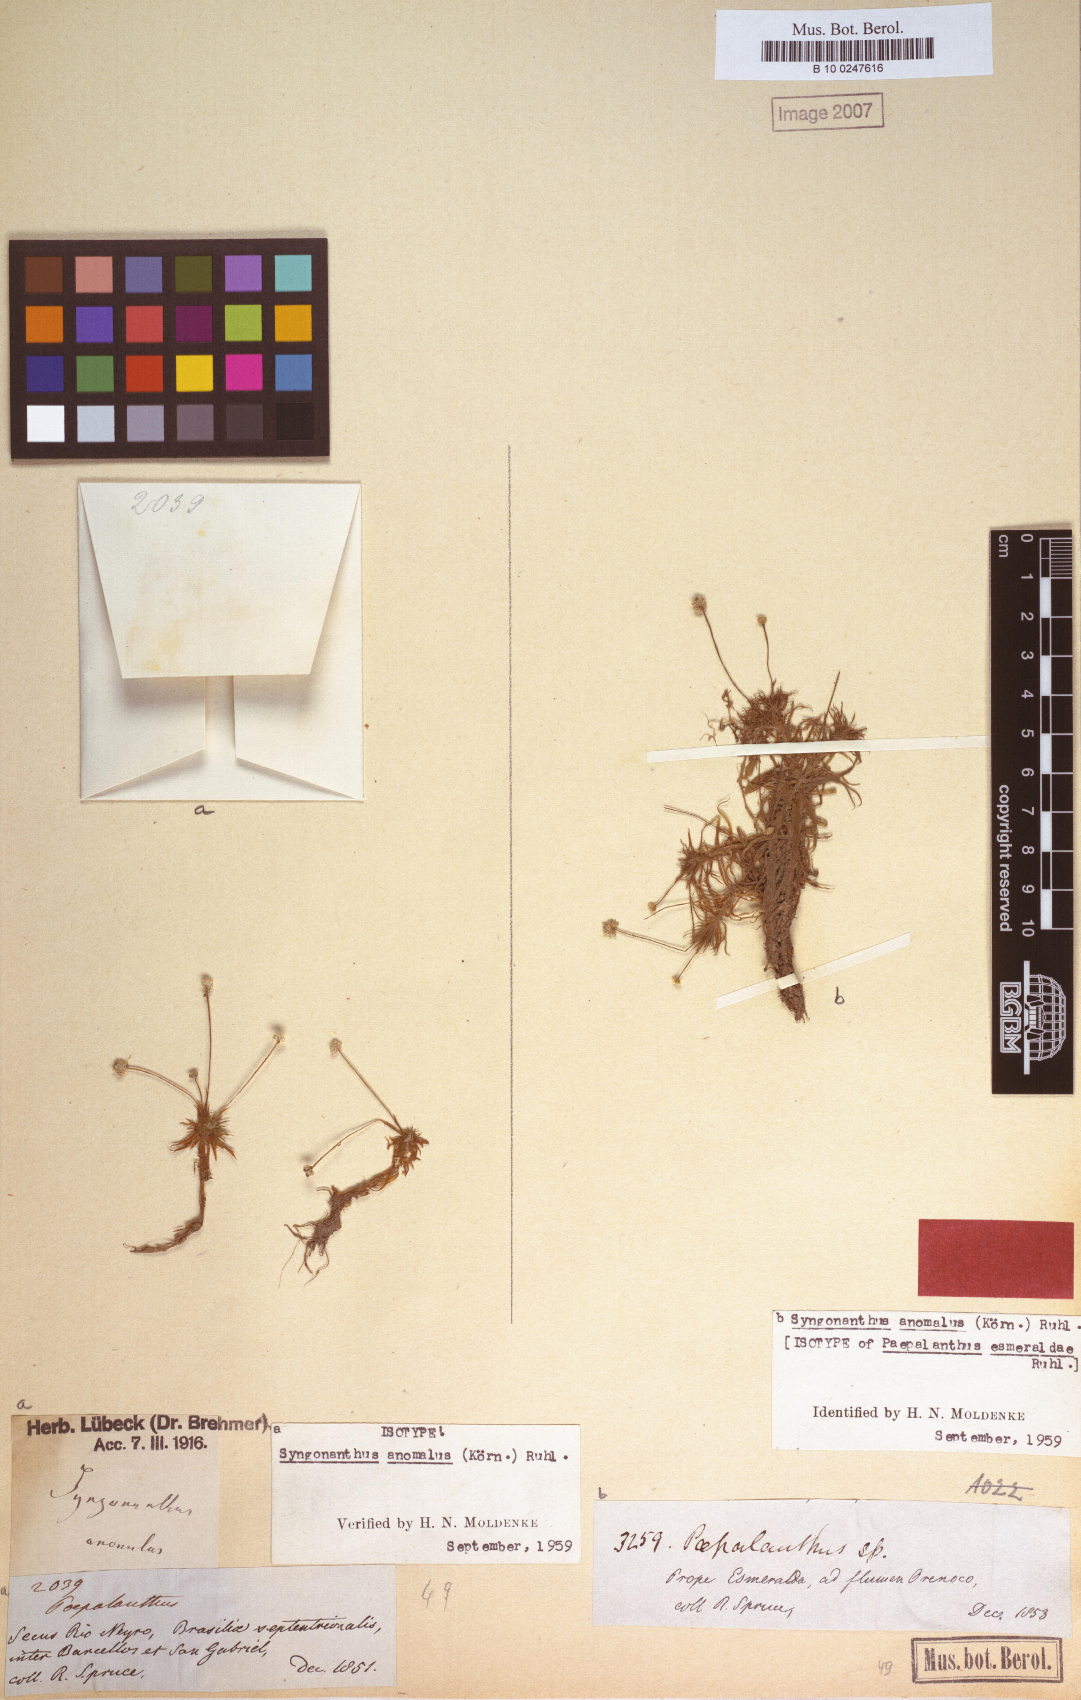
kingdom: Plantae
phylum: Tracheophyta
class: Liliopsida
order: Poales
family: Eriocaulaceae
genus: Syngonanthus
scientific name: Syngonanthus anomalus
